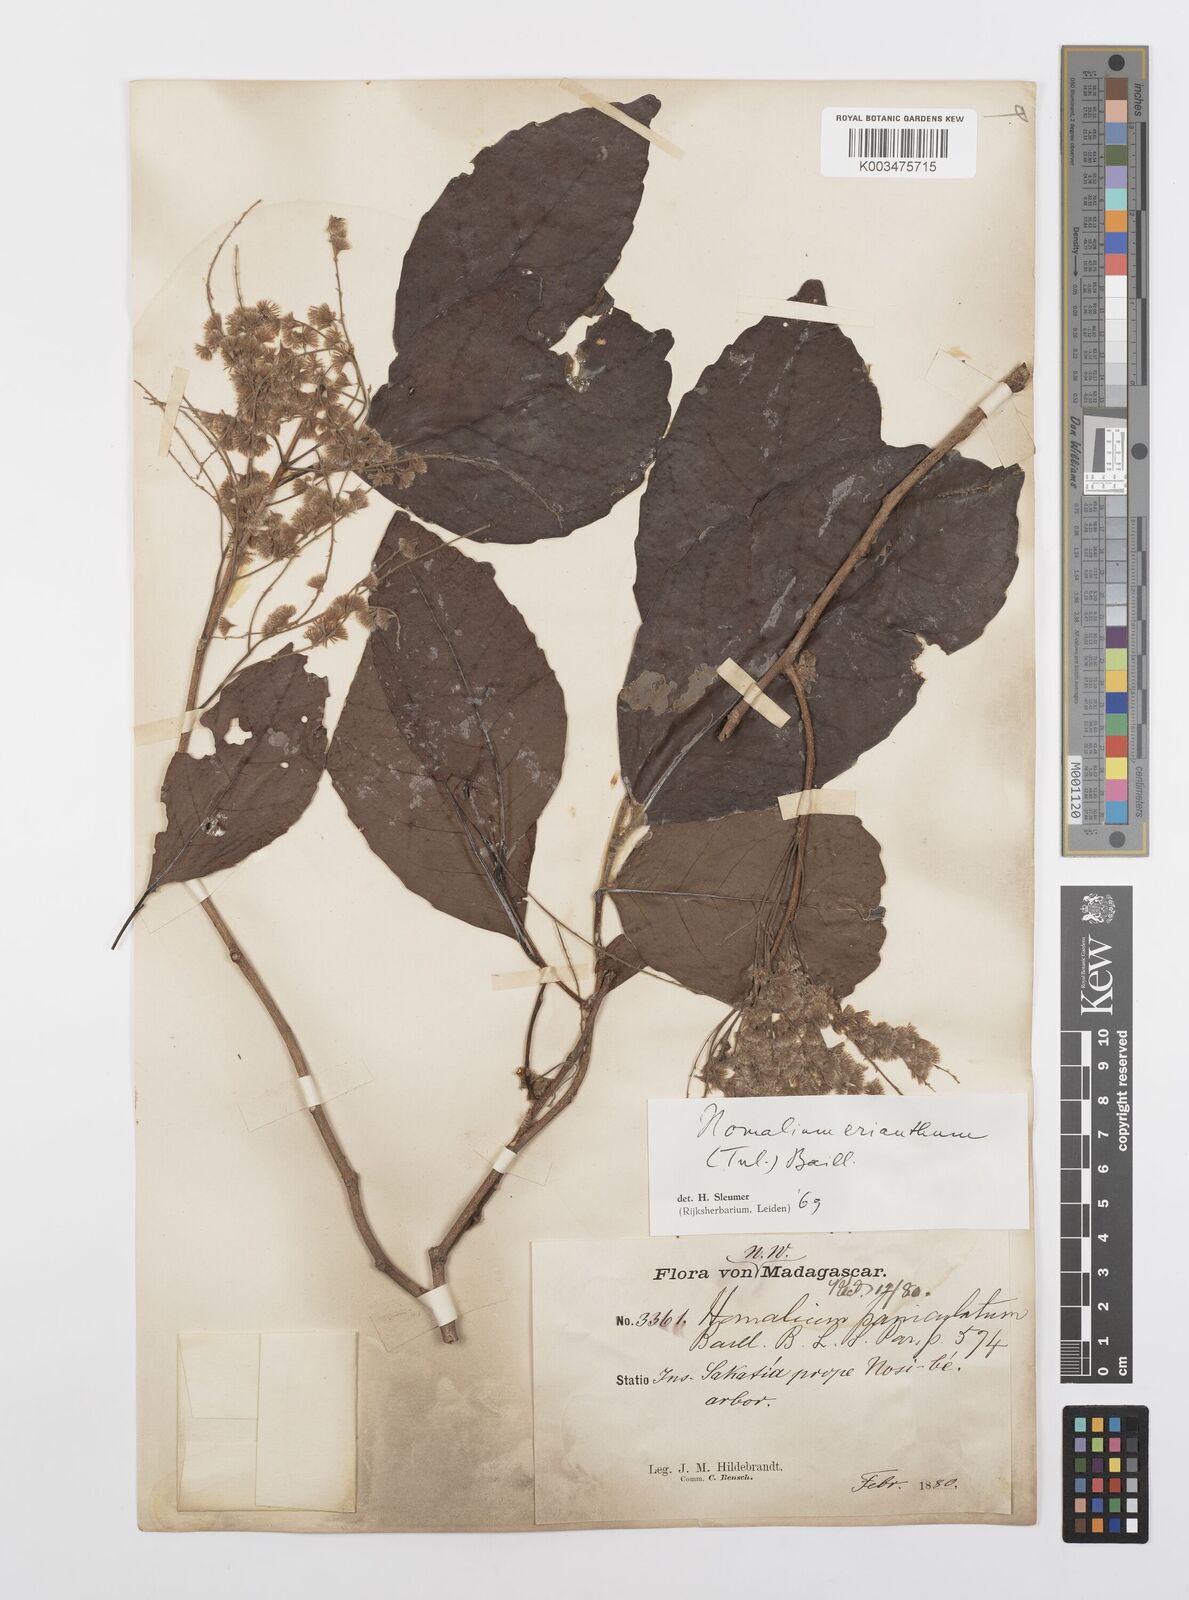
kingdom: Plantae
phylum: Tracheophyta
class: Magnoliopsida
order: Malpighiales
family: Salicaceae
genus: Homalium
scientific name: Homalium erianthum
